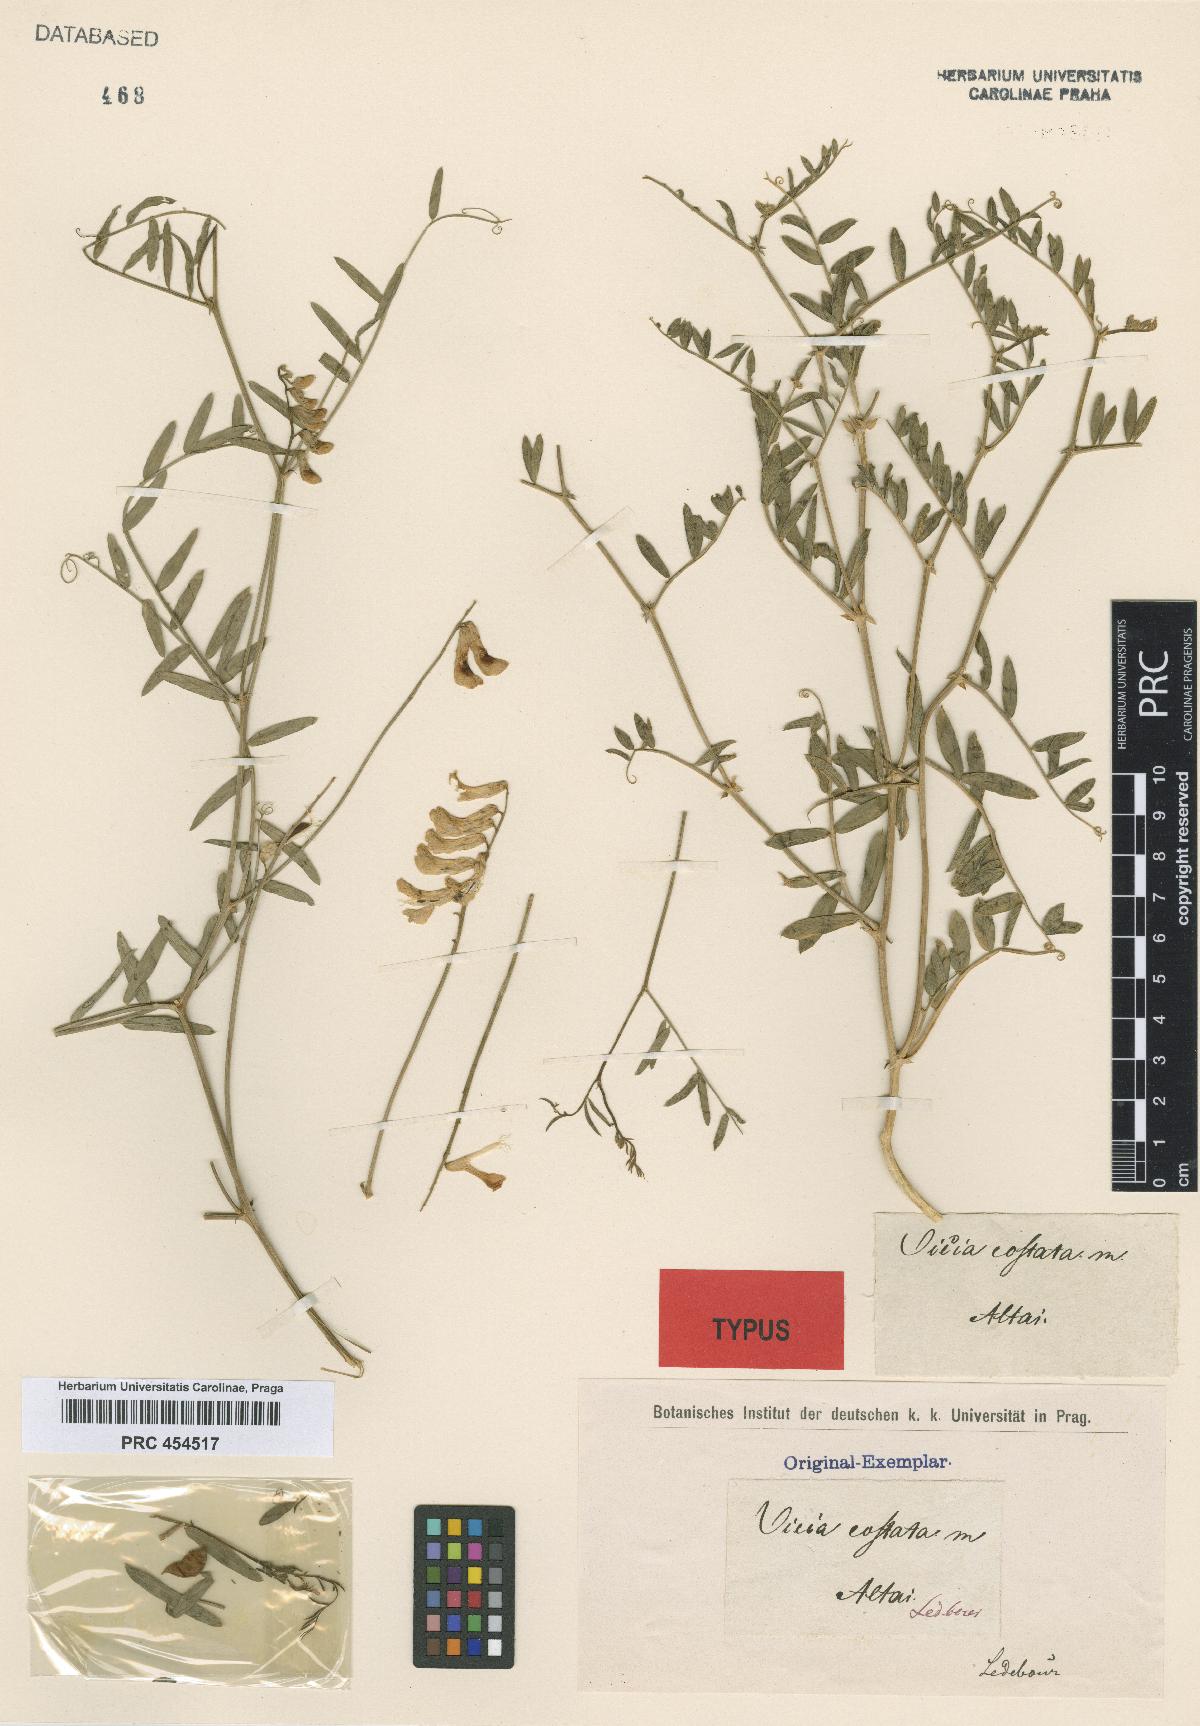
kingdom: Plantae
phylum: Tracheophyta
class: Magnoliopsida
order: Fabales
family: Fabaceae
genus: Vicia
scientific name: Vicia costata
